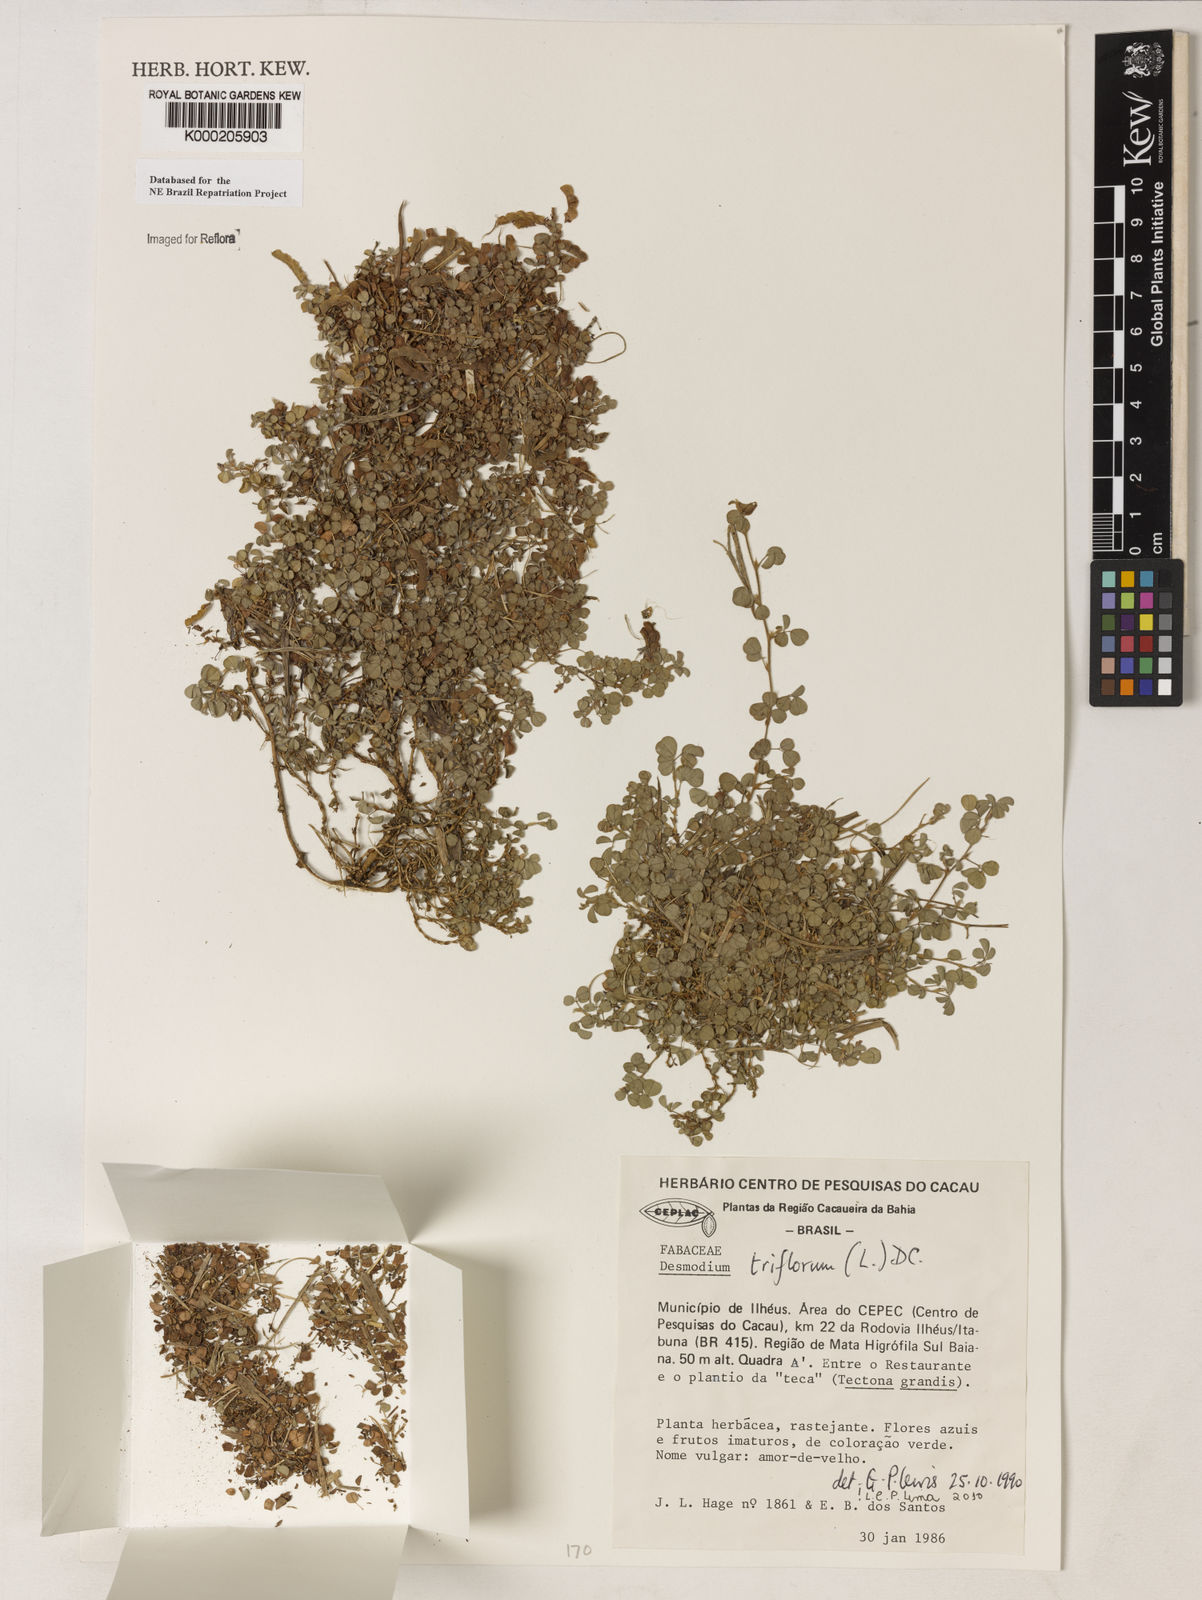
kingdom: Plantae
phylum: Tracheophyta
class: Magnoliopsida
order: Fabales
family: Fabaceae
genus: Grona
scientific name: Grona triflora
